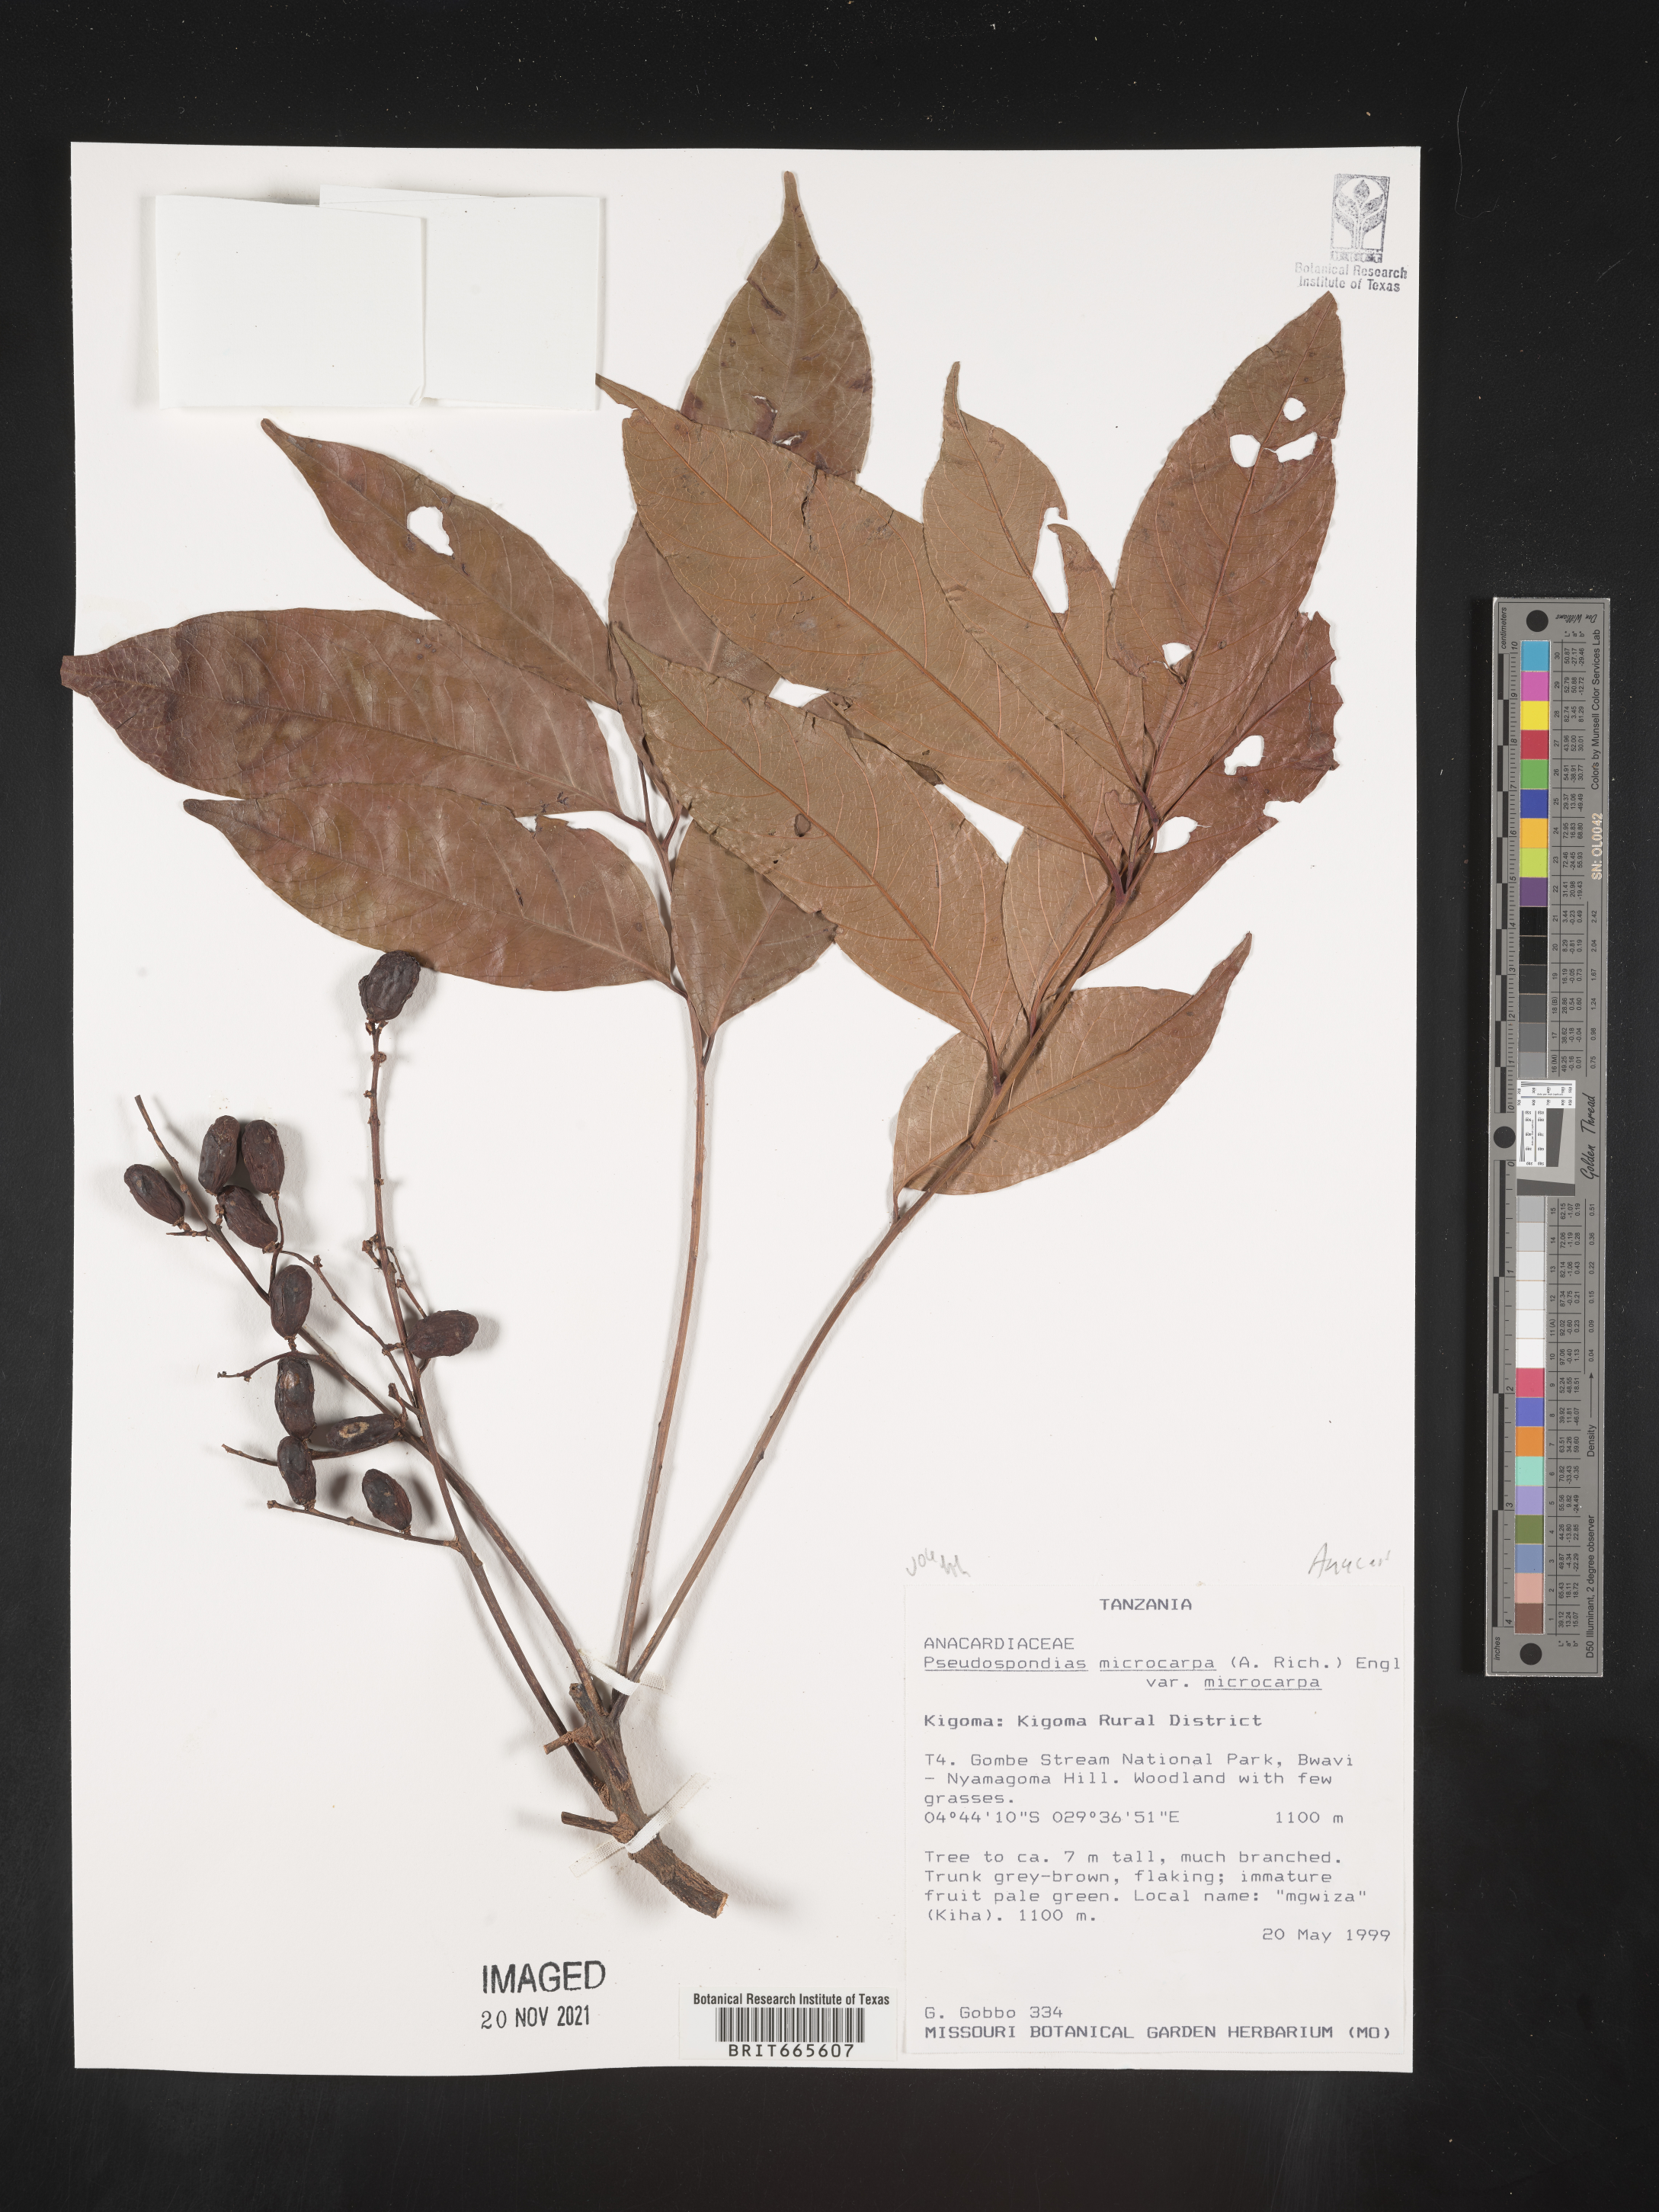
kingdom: Plantae
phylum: Tracheophyta
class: Magnoliopsida
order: Sapindales
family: Anacardiaceae
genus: Pseudospondias
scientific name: Pseudospondias
